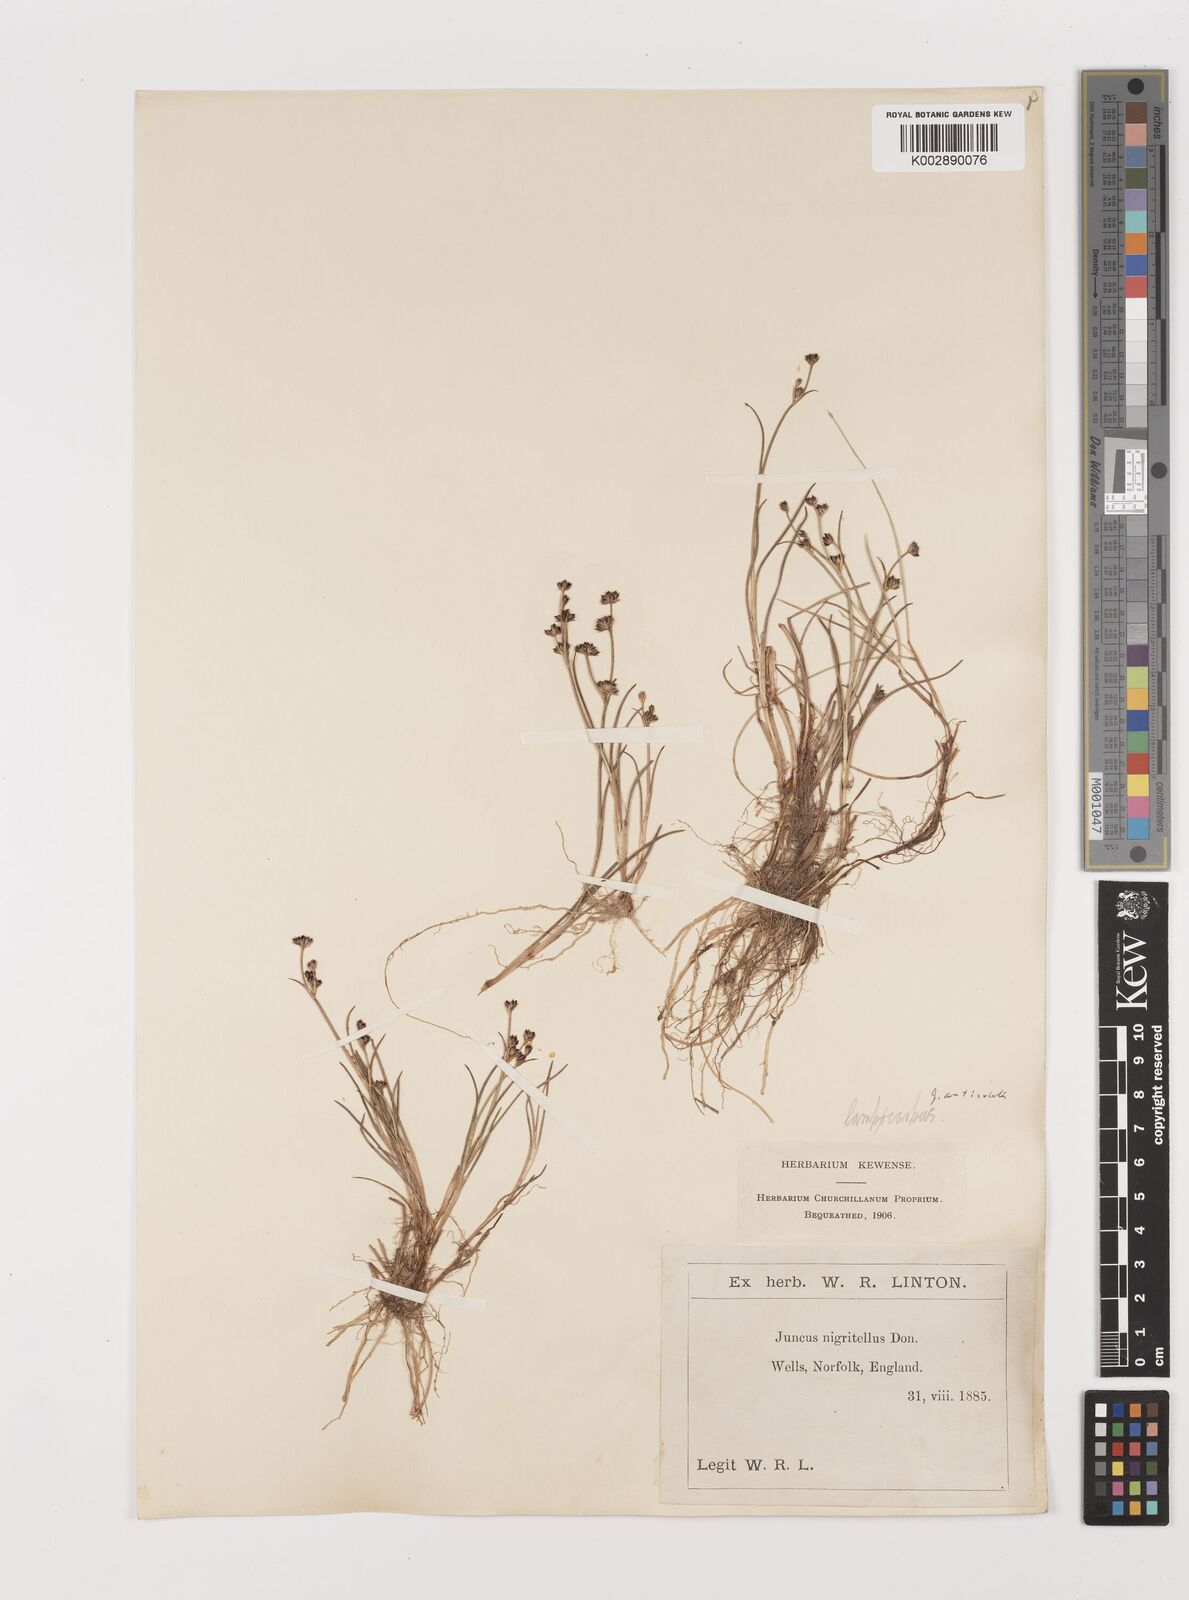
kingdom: Plantae
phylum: Tracheophyta
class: Liliopsida
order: Poales
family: Juncaceae
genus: Juncus
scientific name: Juncus articulatus
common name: Jointed rush
